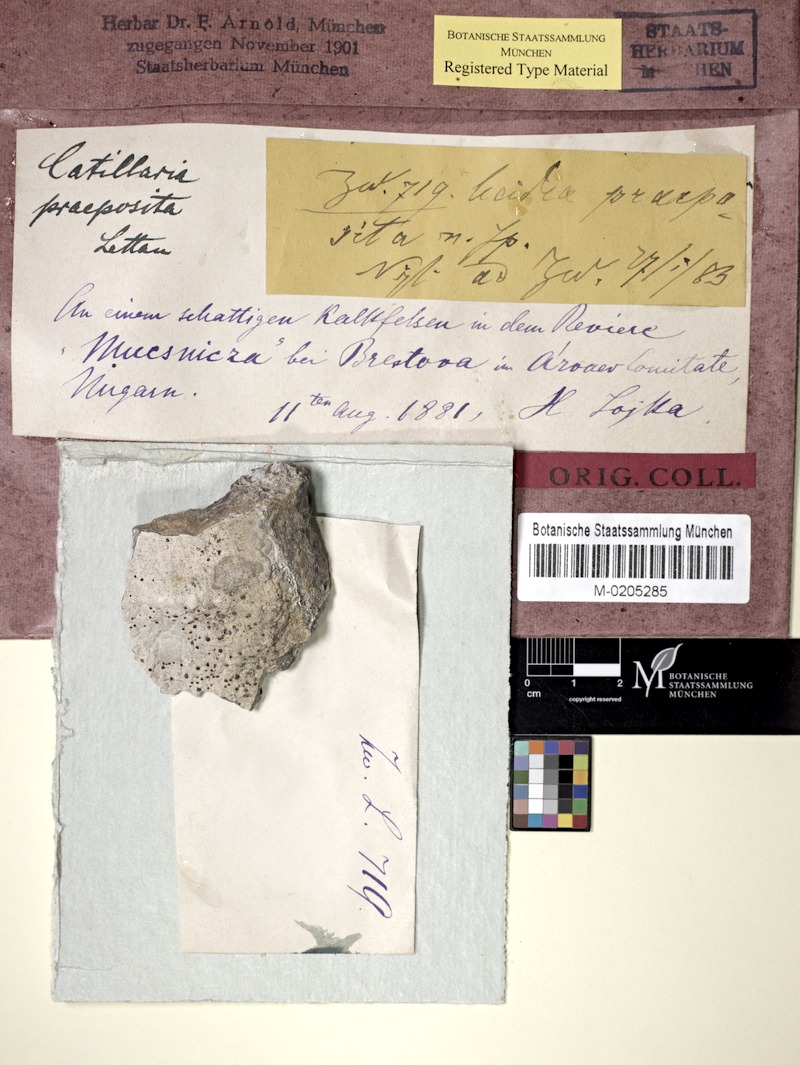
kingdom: Fungi
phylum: Ascomycota
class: Lecanoromycetes
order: Lecanorales
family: Catillariaceae
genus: Catillaria
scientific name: Catillaria
